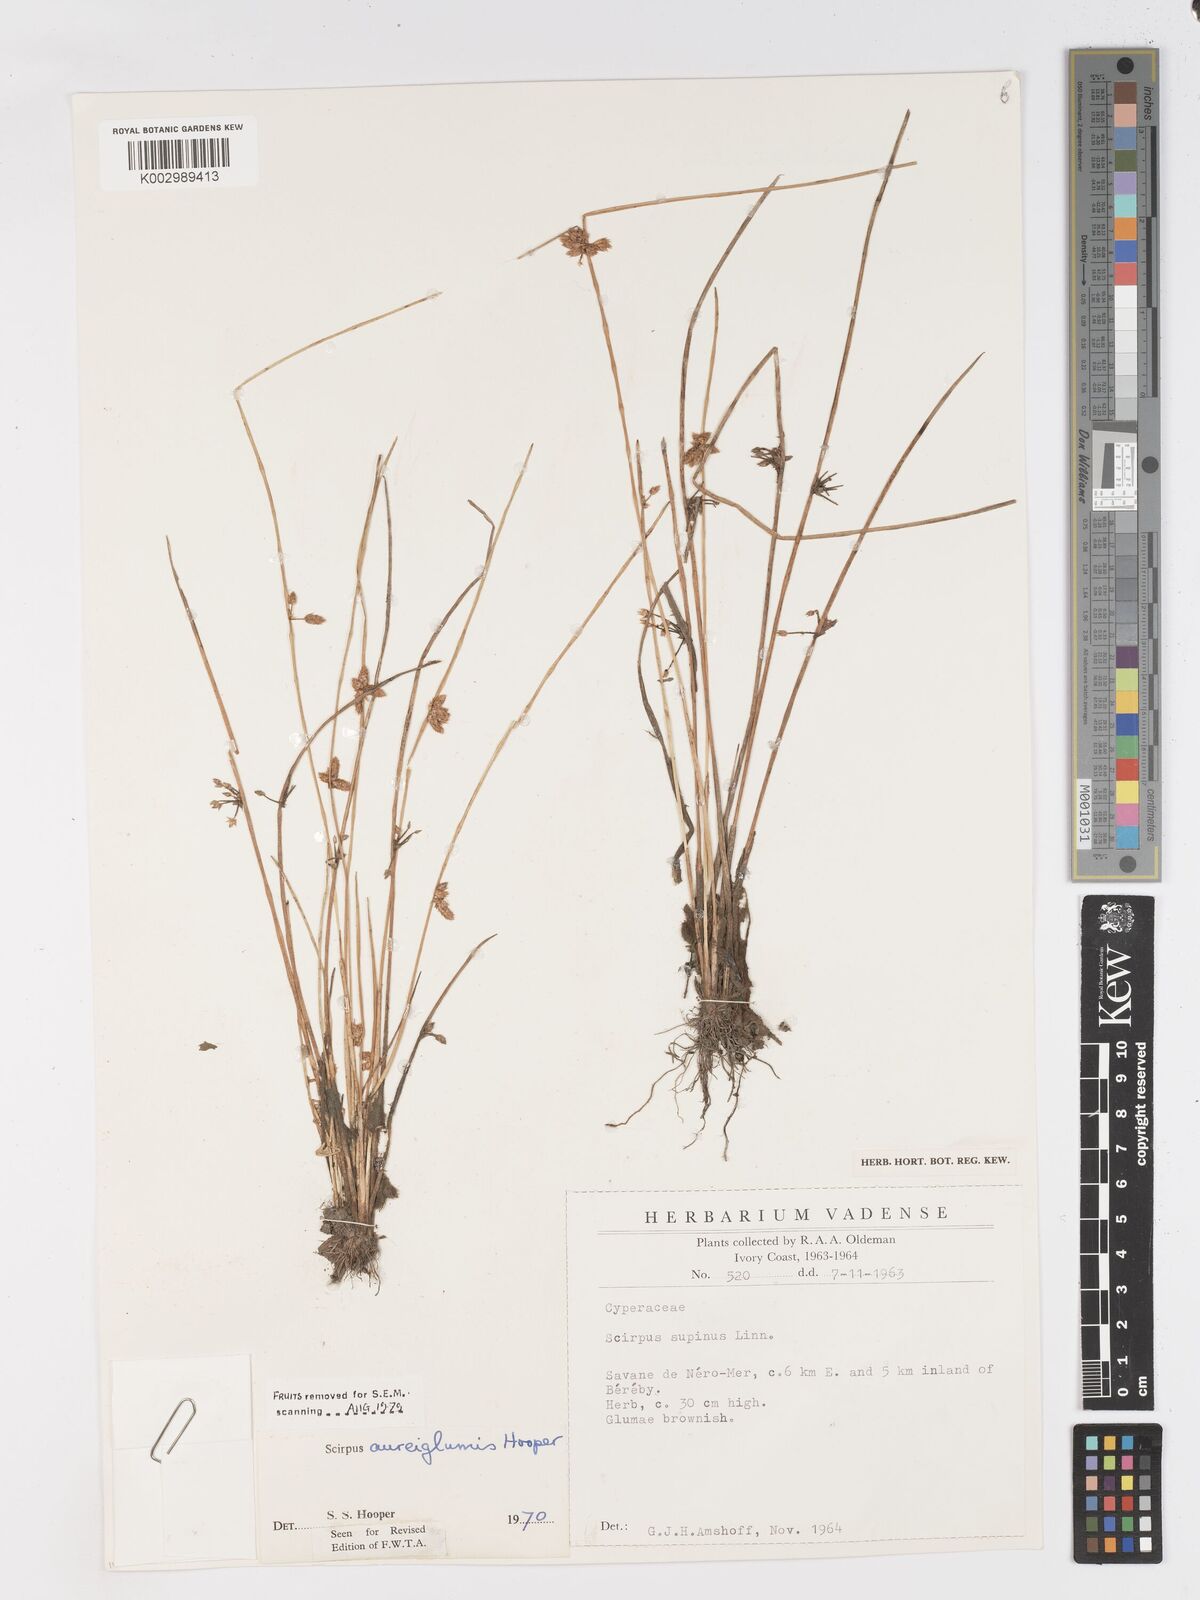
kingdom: Plantae
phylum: Tracheophyta
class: Liliopsida
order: Poales
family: Cyperaceae
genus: Schoenoplectus
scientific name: Schoenoplectus
